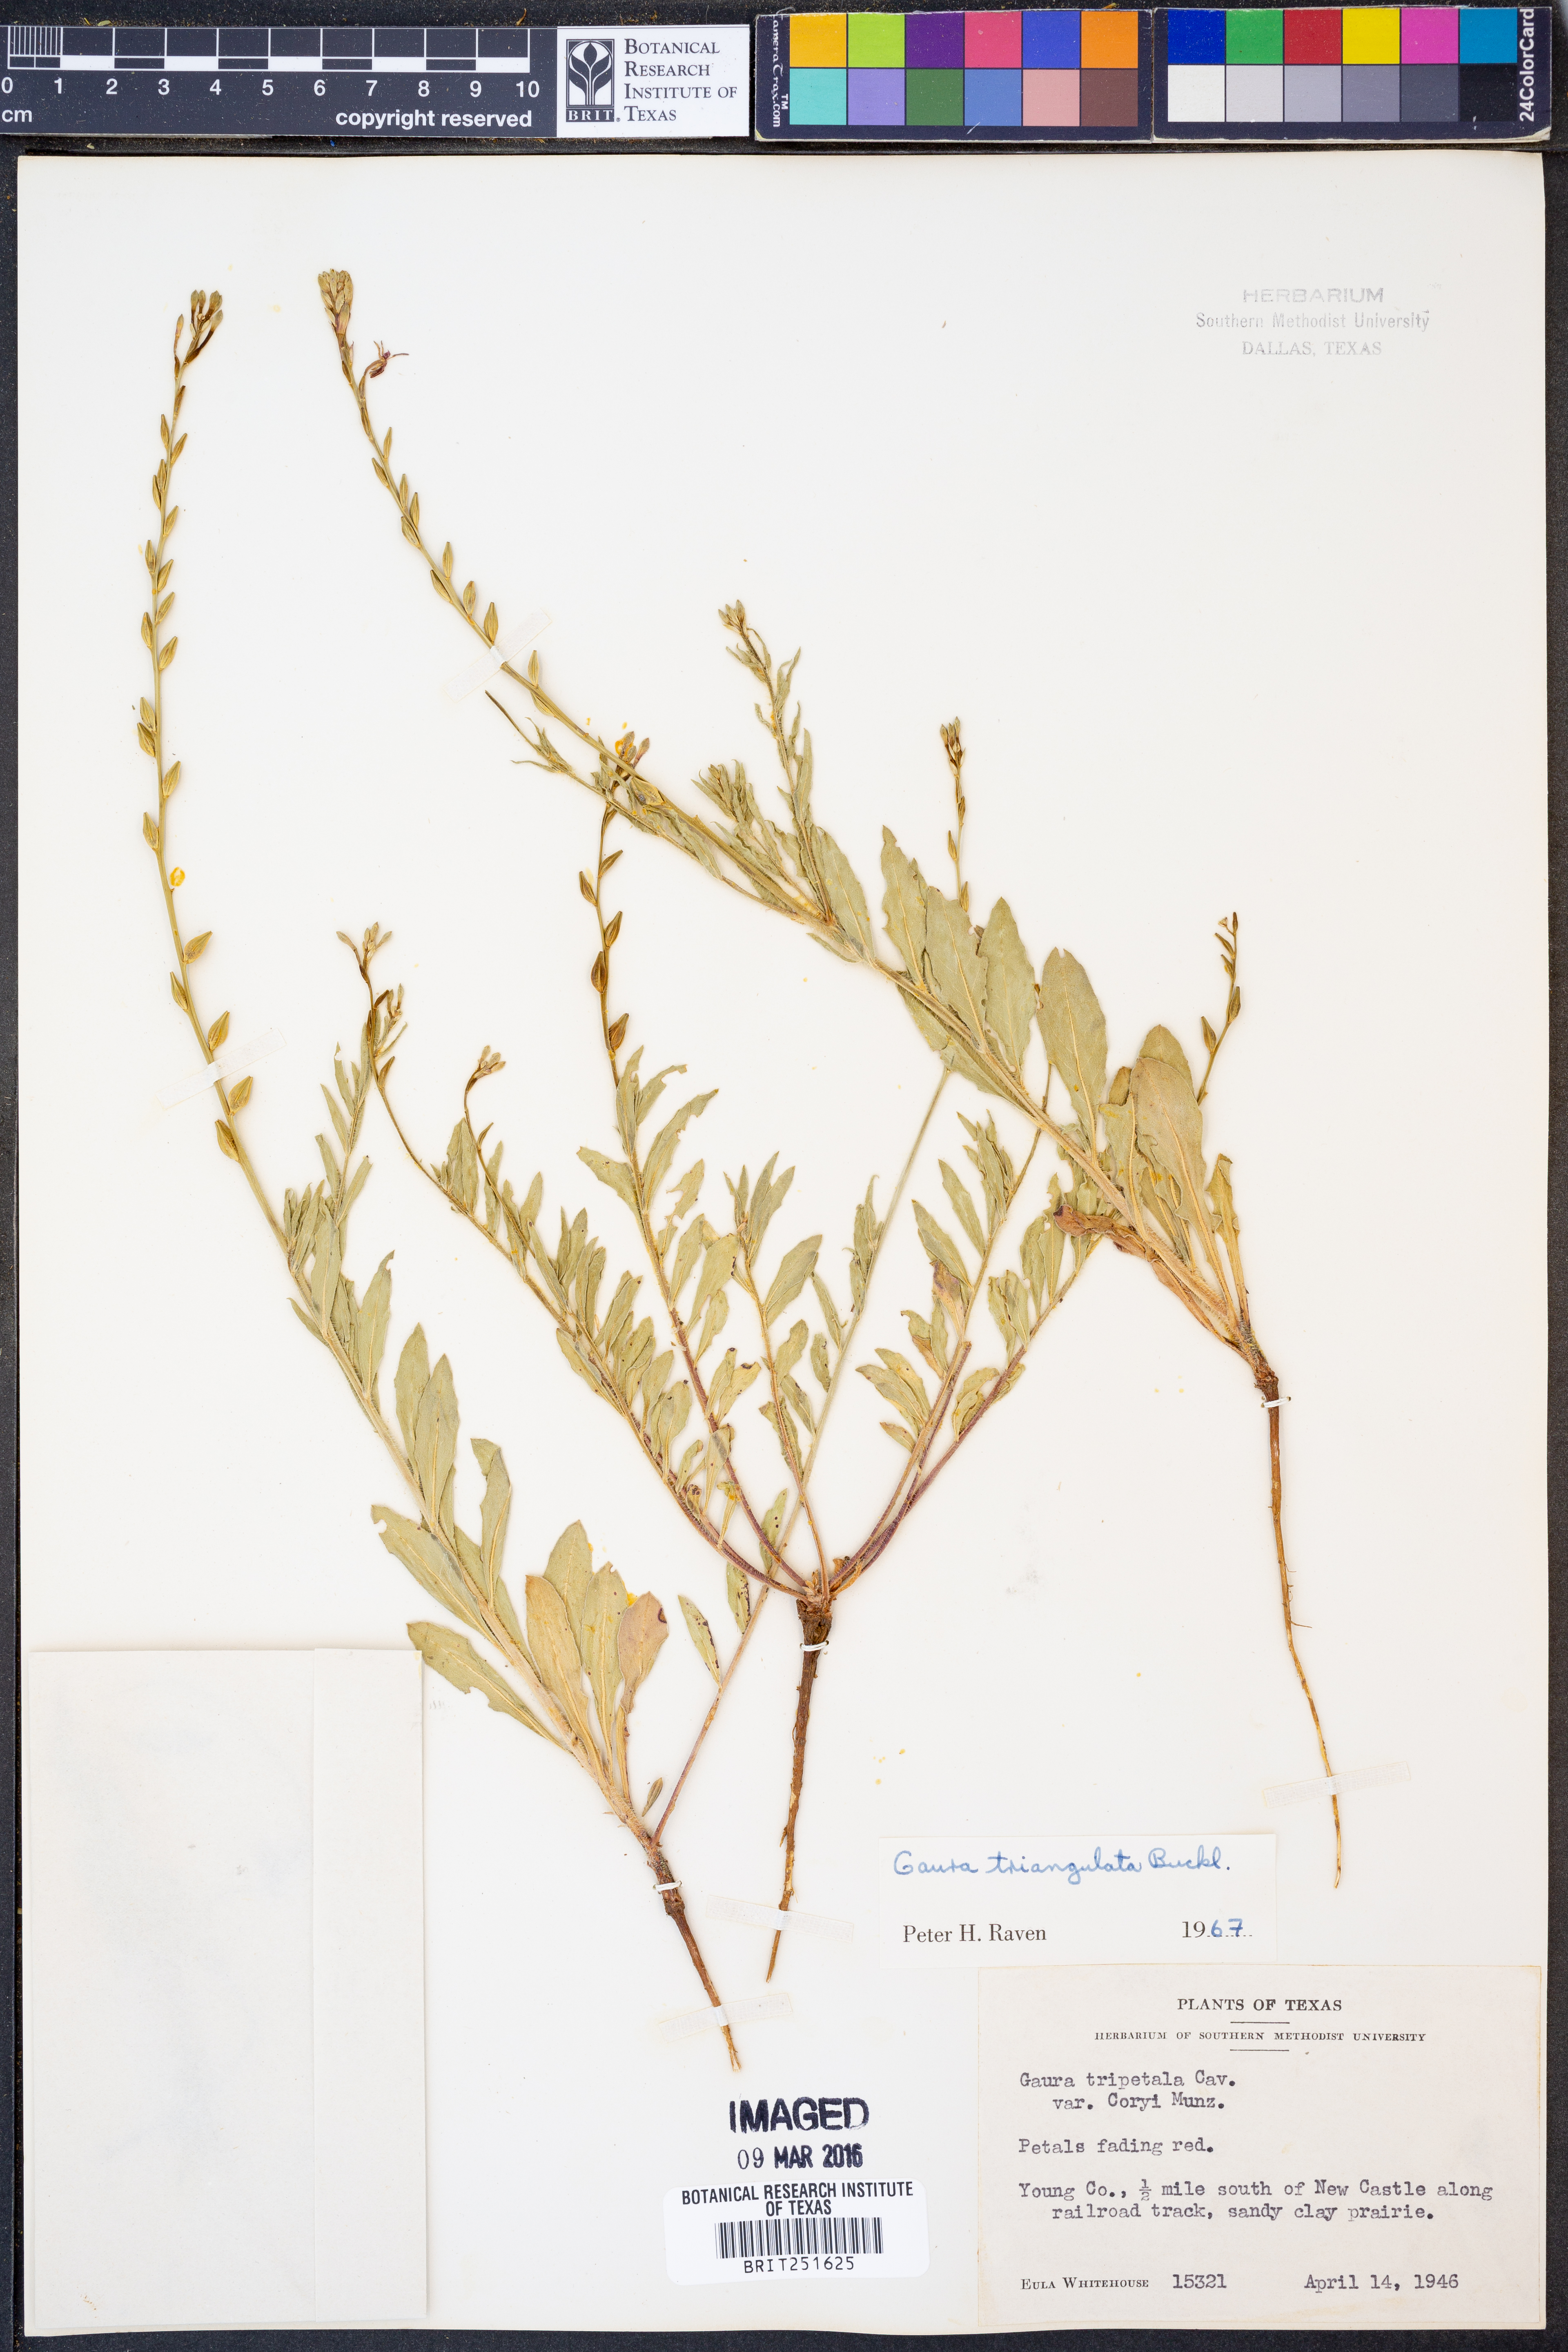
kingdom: Plantae
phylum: Tracheophyta
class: Magnoliopsida
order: Myrtales
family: Onagraceae
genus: Oenothera
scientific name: Oenothera triangulata
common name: Prairie beeblossom
